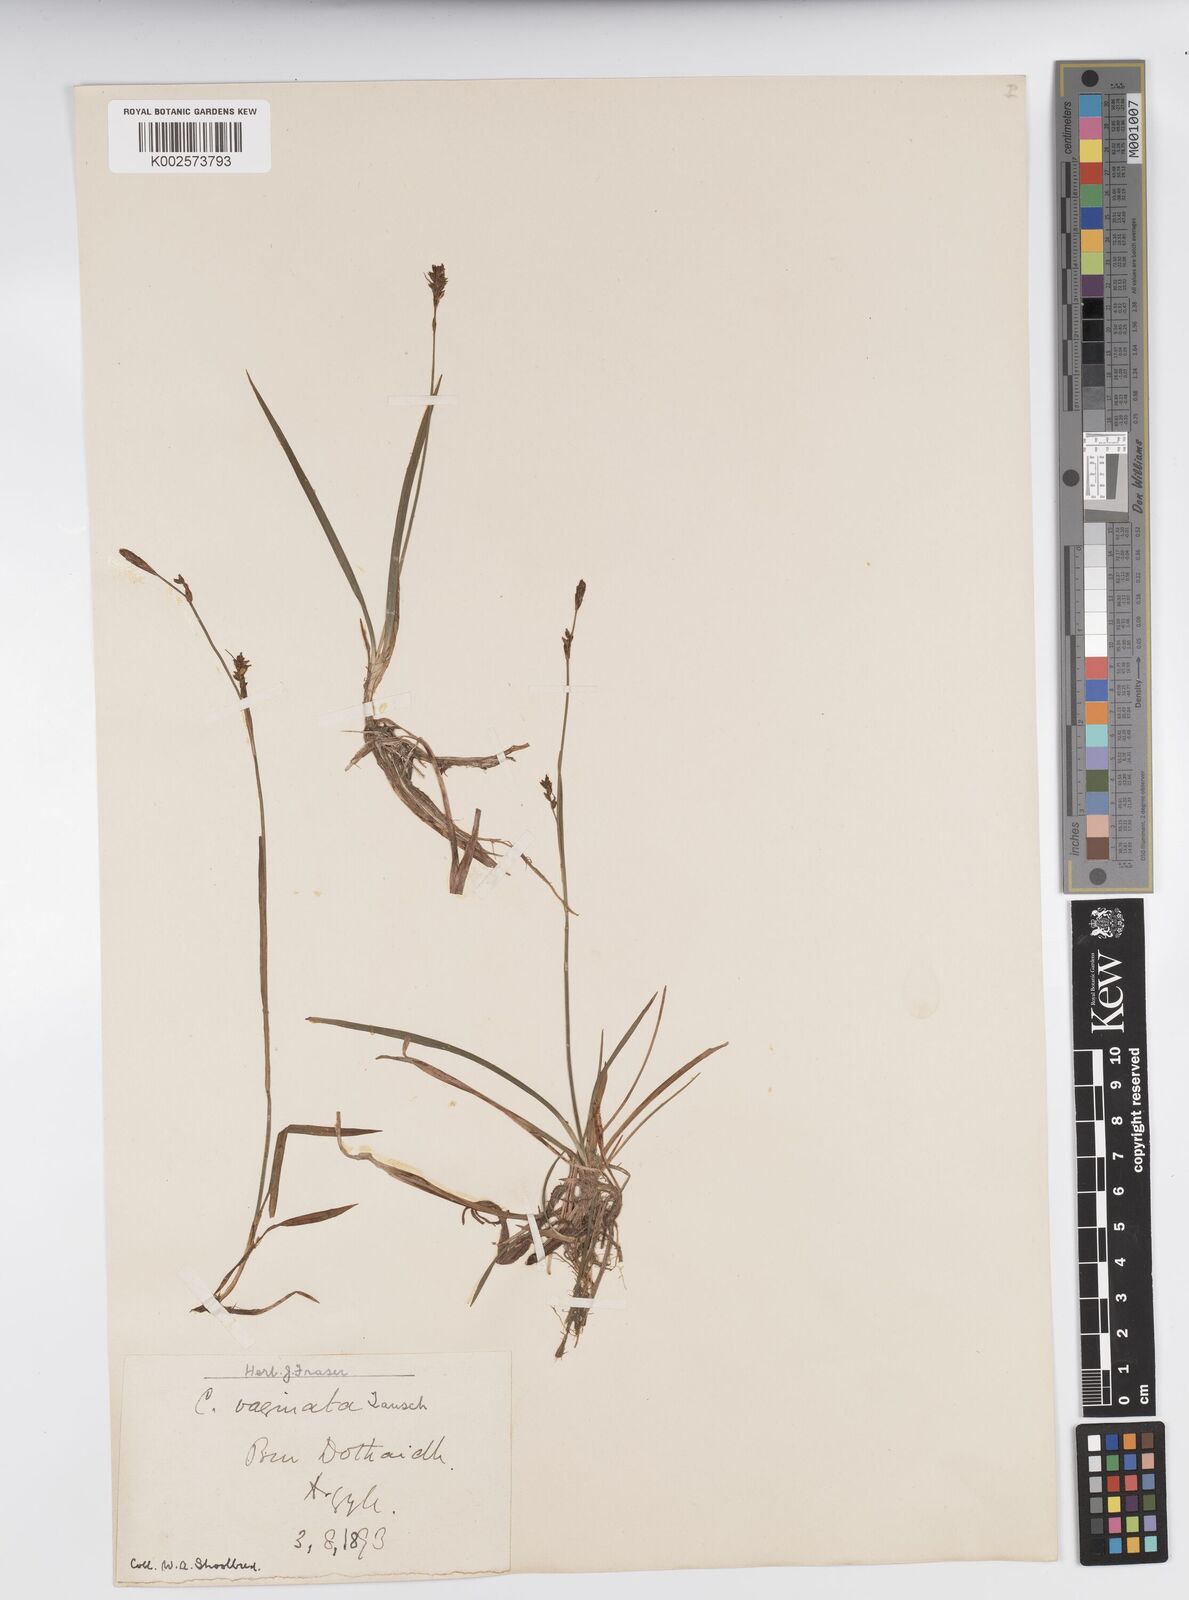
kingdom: Plantae
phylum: Tracheophyta
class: Liliopsida
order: Poales
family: Cyperaceae
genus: Carex
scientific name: Carex vaginata
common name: Sheathed sedge
